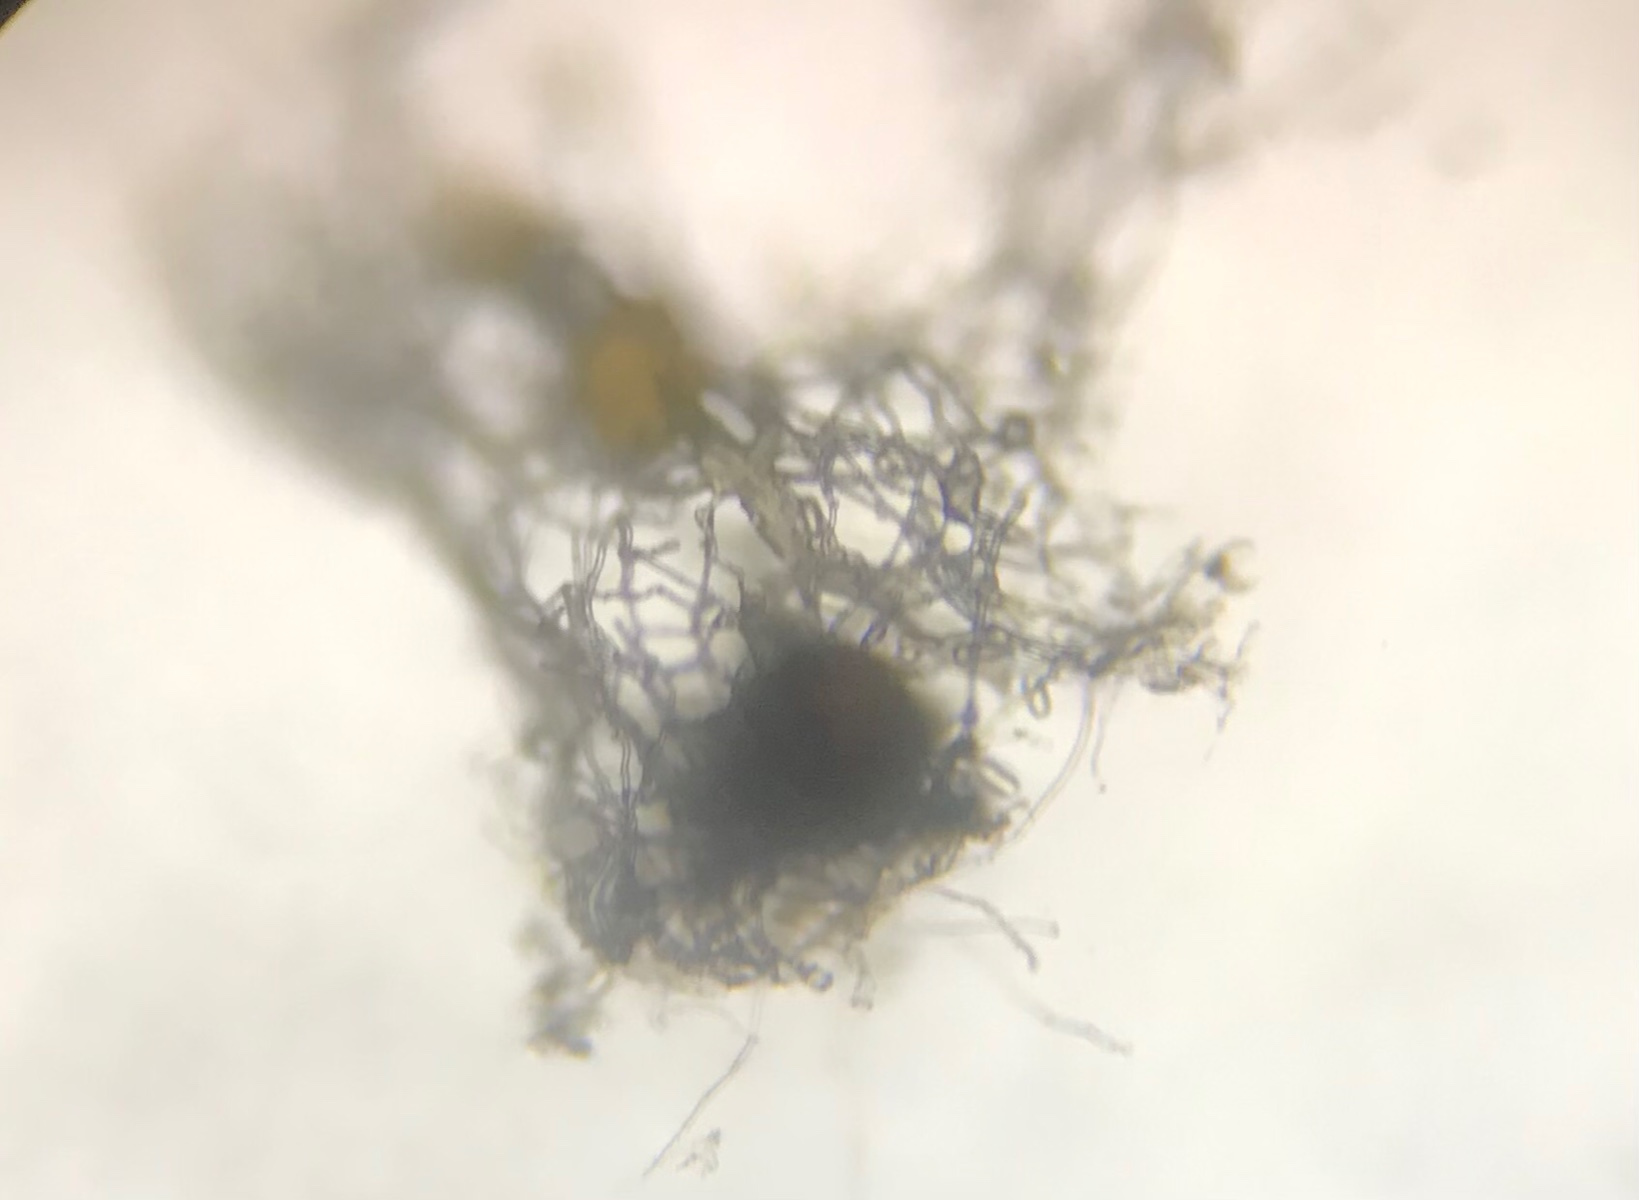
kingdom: Fungi
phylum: Ascomycota
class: Leotiomycetes
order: Helotiales
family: Erysiphaceae
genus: Golovinomyces
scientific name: Golovinomyces sonchicola
